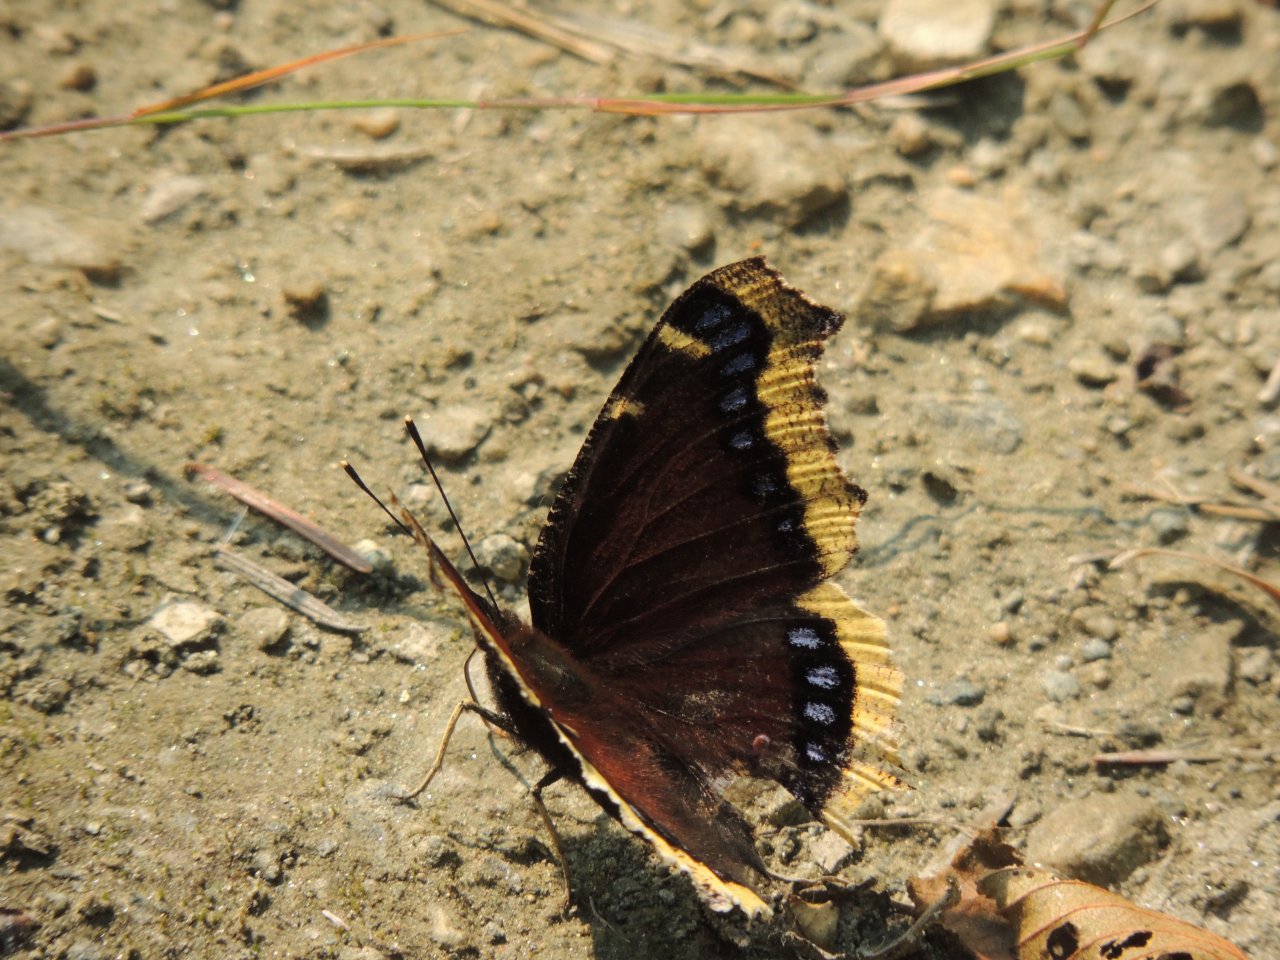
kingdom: Animalia
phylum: Arthropoda
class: Insecta
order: Lepidoptera
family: Nymphalidae
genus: Nymphalis
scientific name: Nymphalis antiopa
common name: Mourning Cloak
